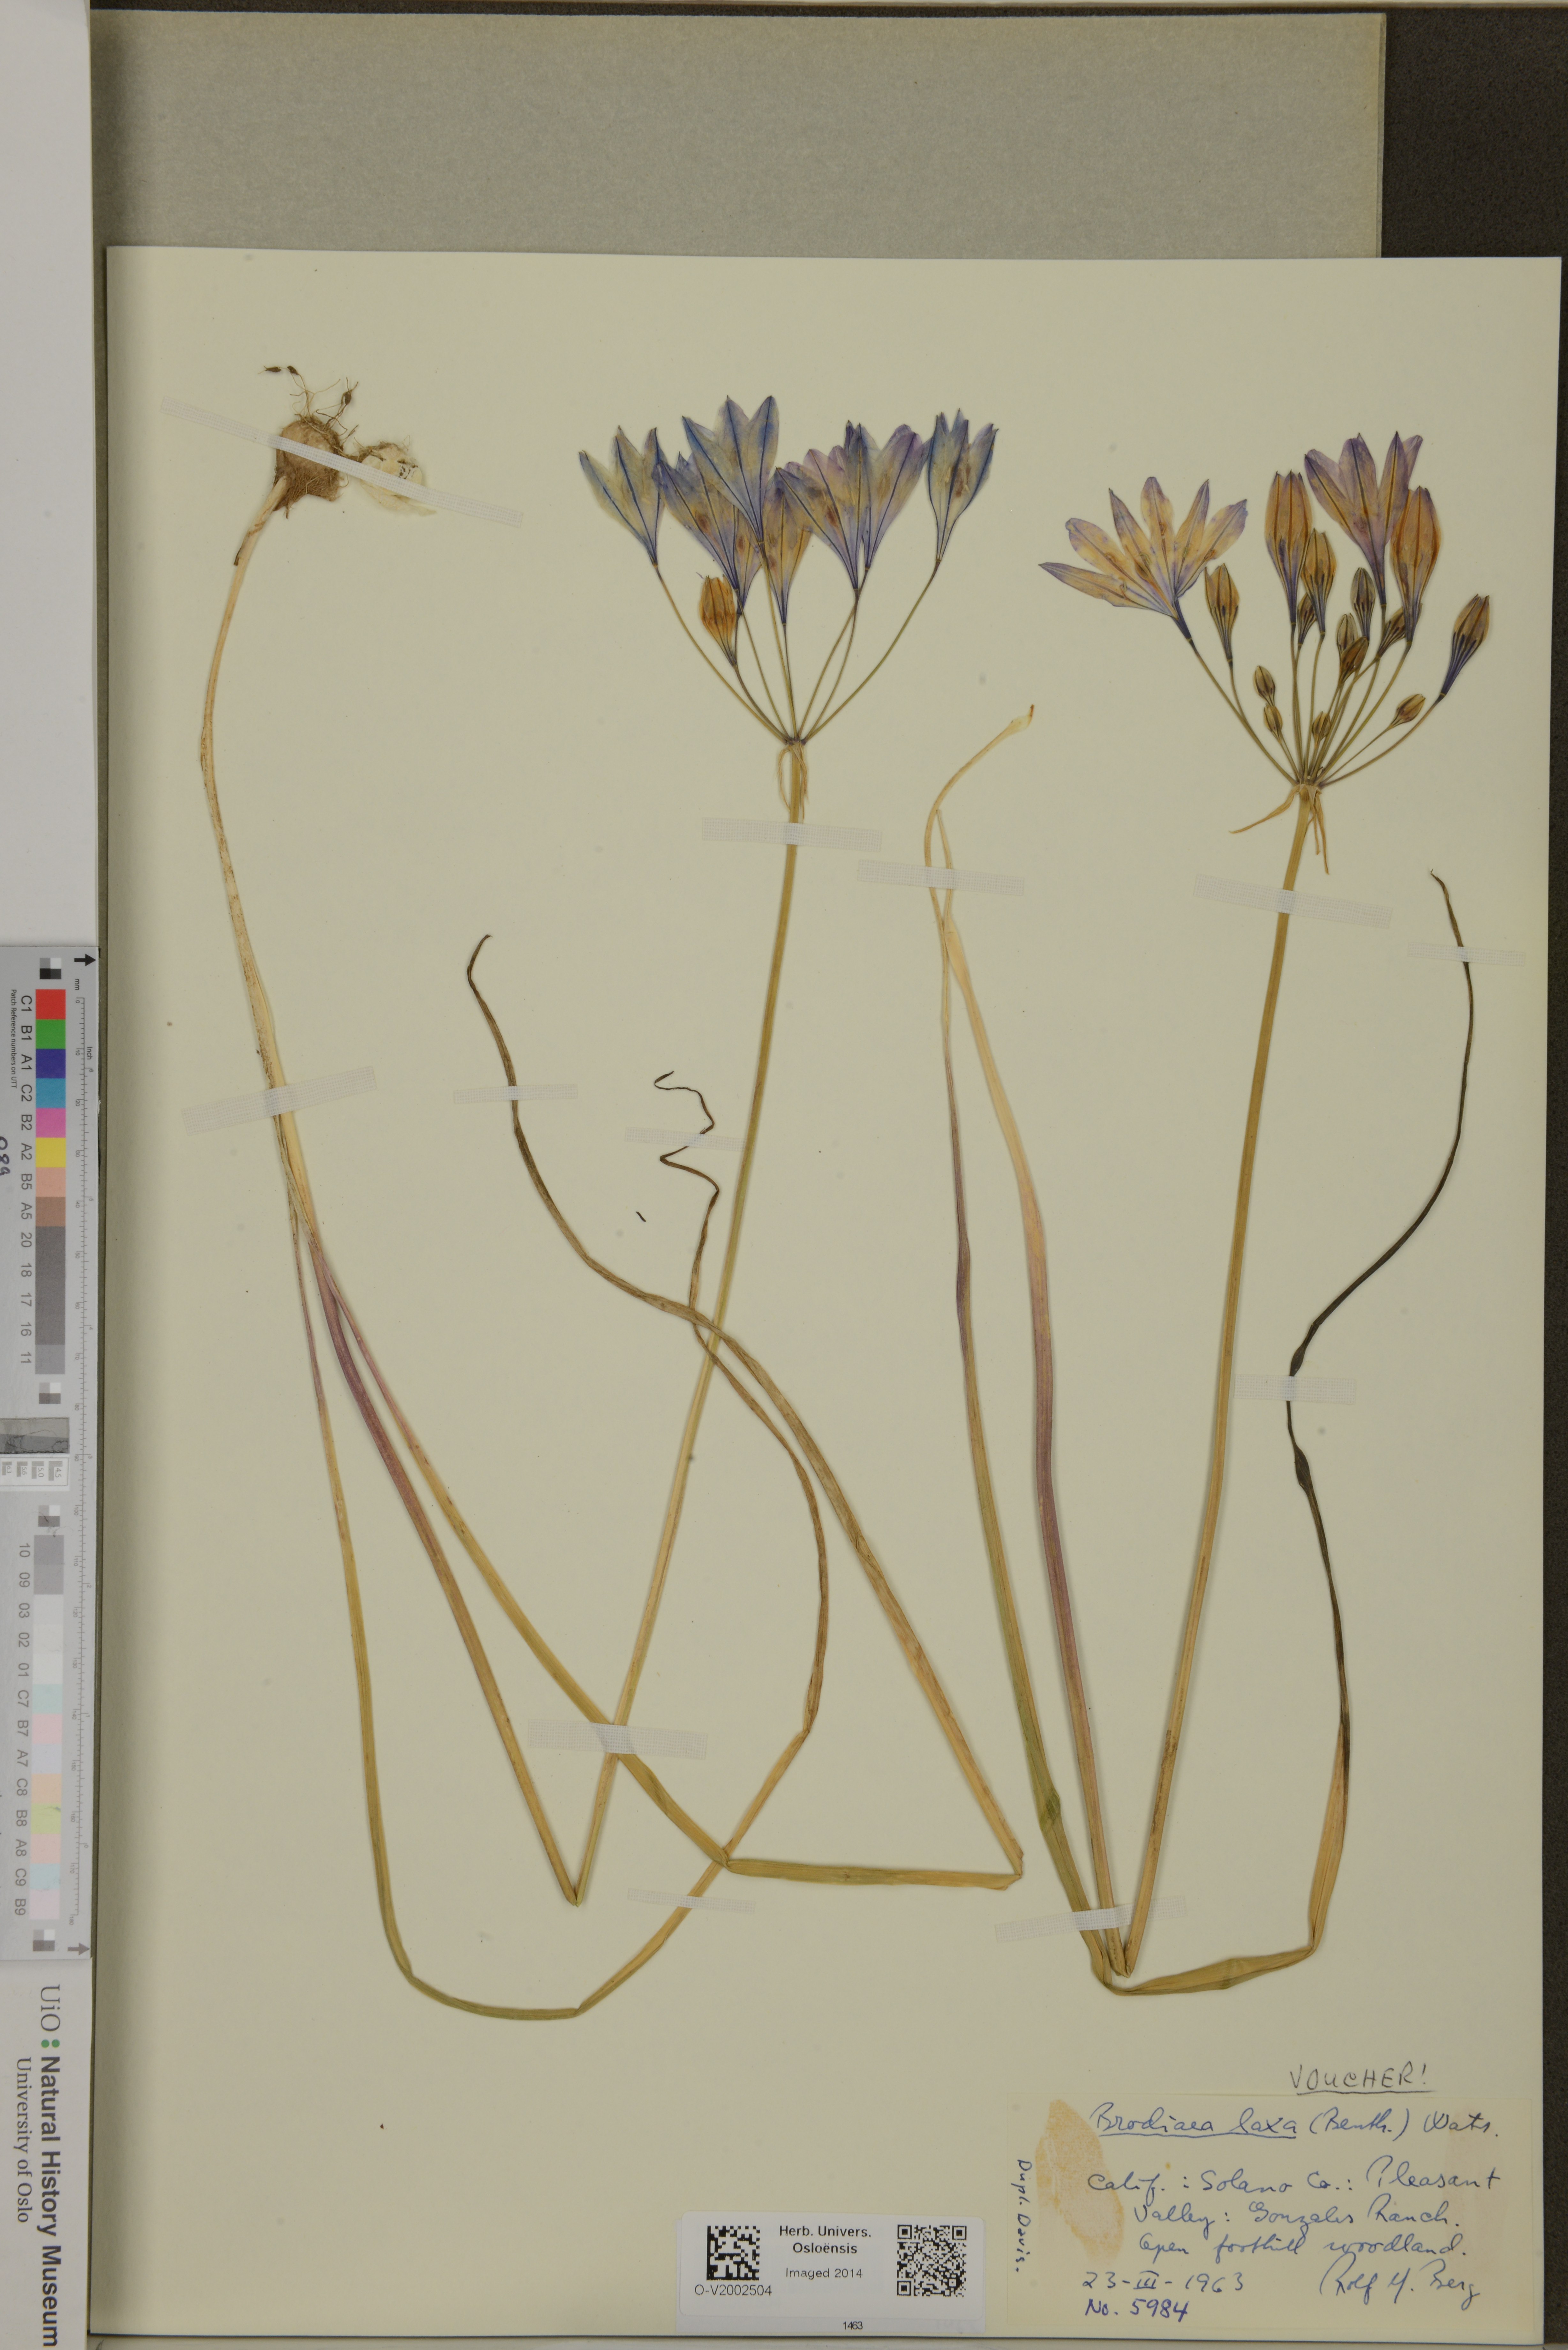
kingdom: Plantae
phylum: Tracheophyta
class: Liliopsida
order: Asparagales
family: Asparagaceae
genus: Triteleia
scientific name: Triteleia laxa
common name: Triplet-lily
